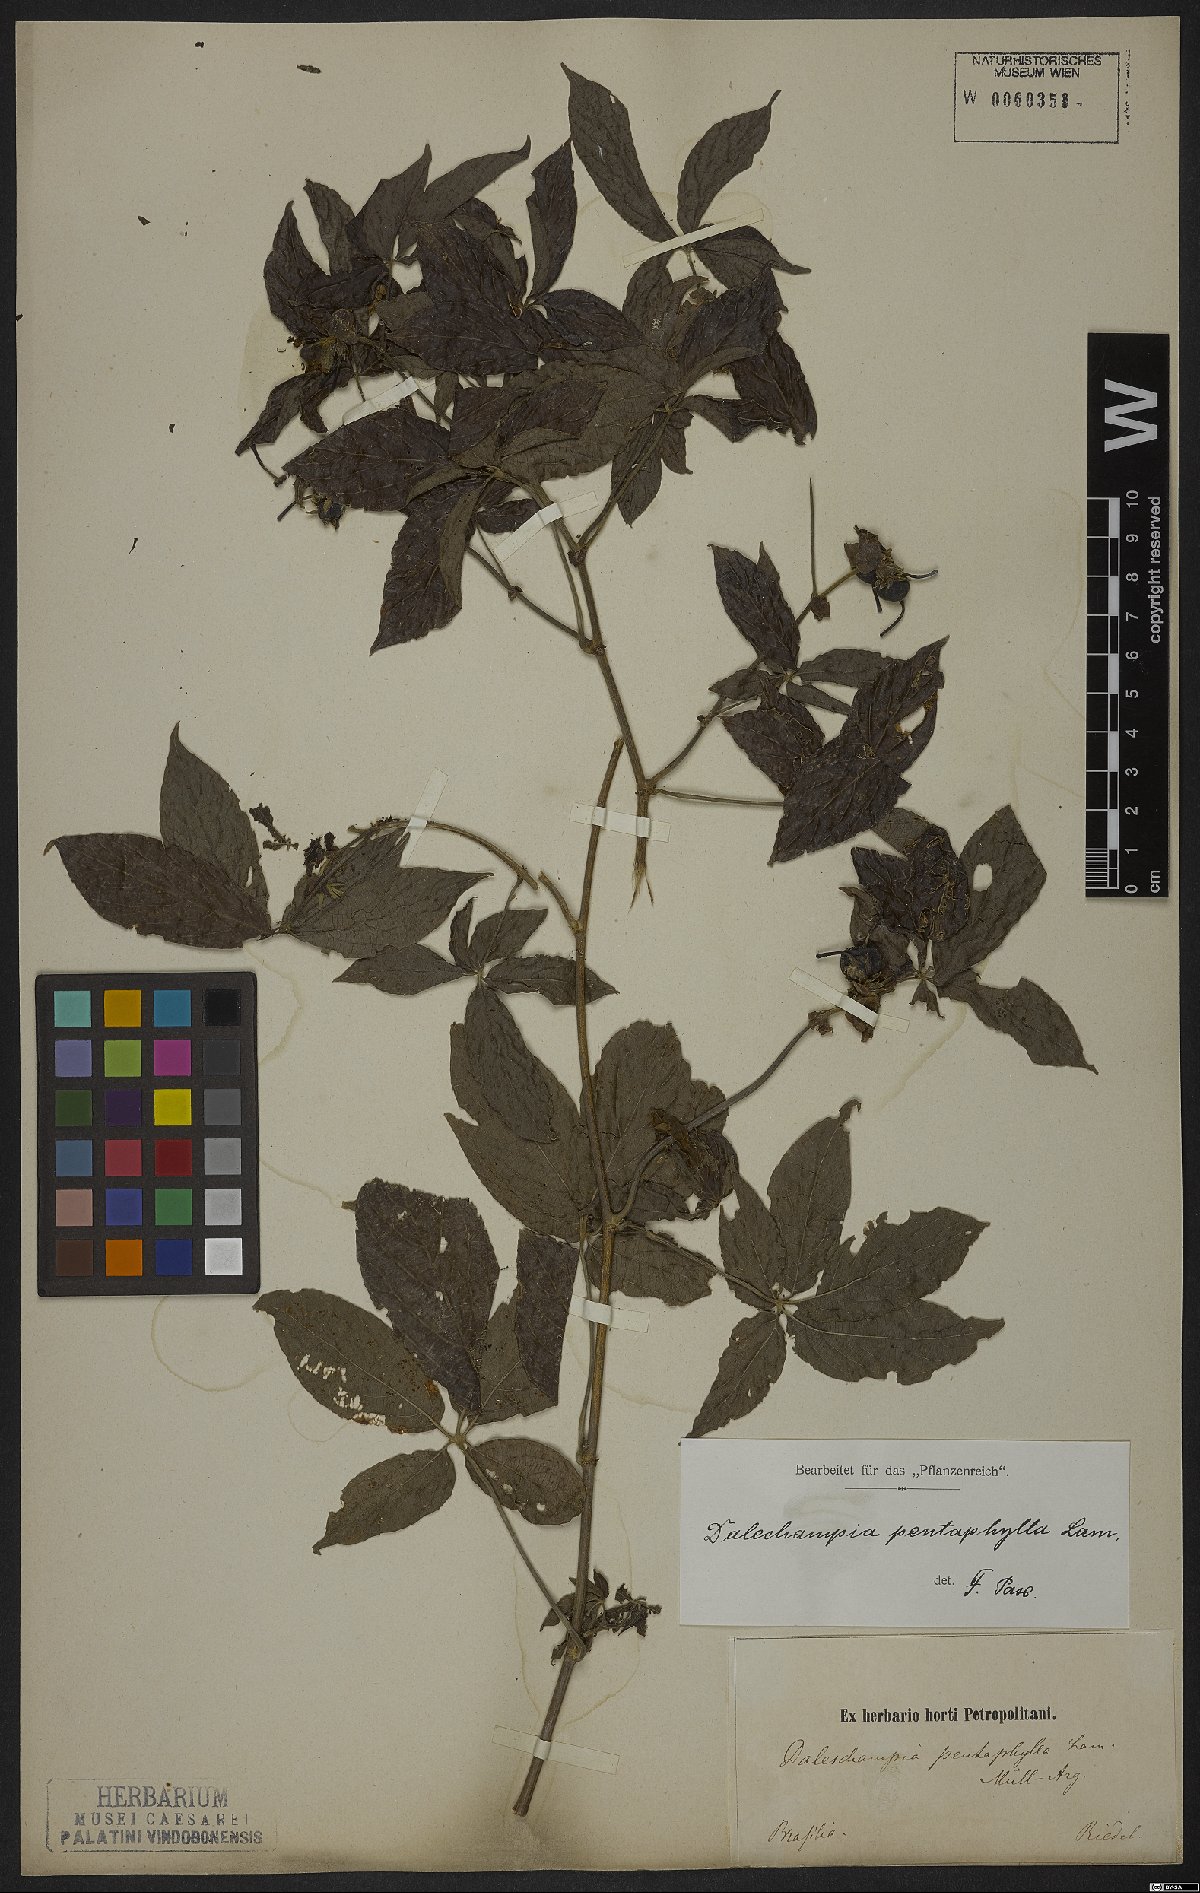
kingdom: Plantae
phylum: Tracheophyta
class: Magnoliopsida
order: Malpighiales
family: Euphorbiaceae
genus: Dalechampia
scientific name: Dalechampia pentaphylla
